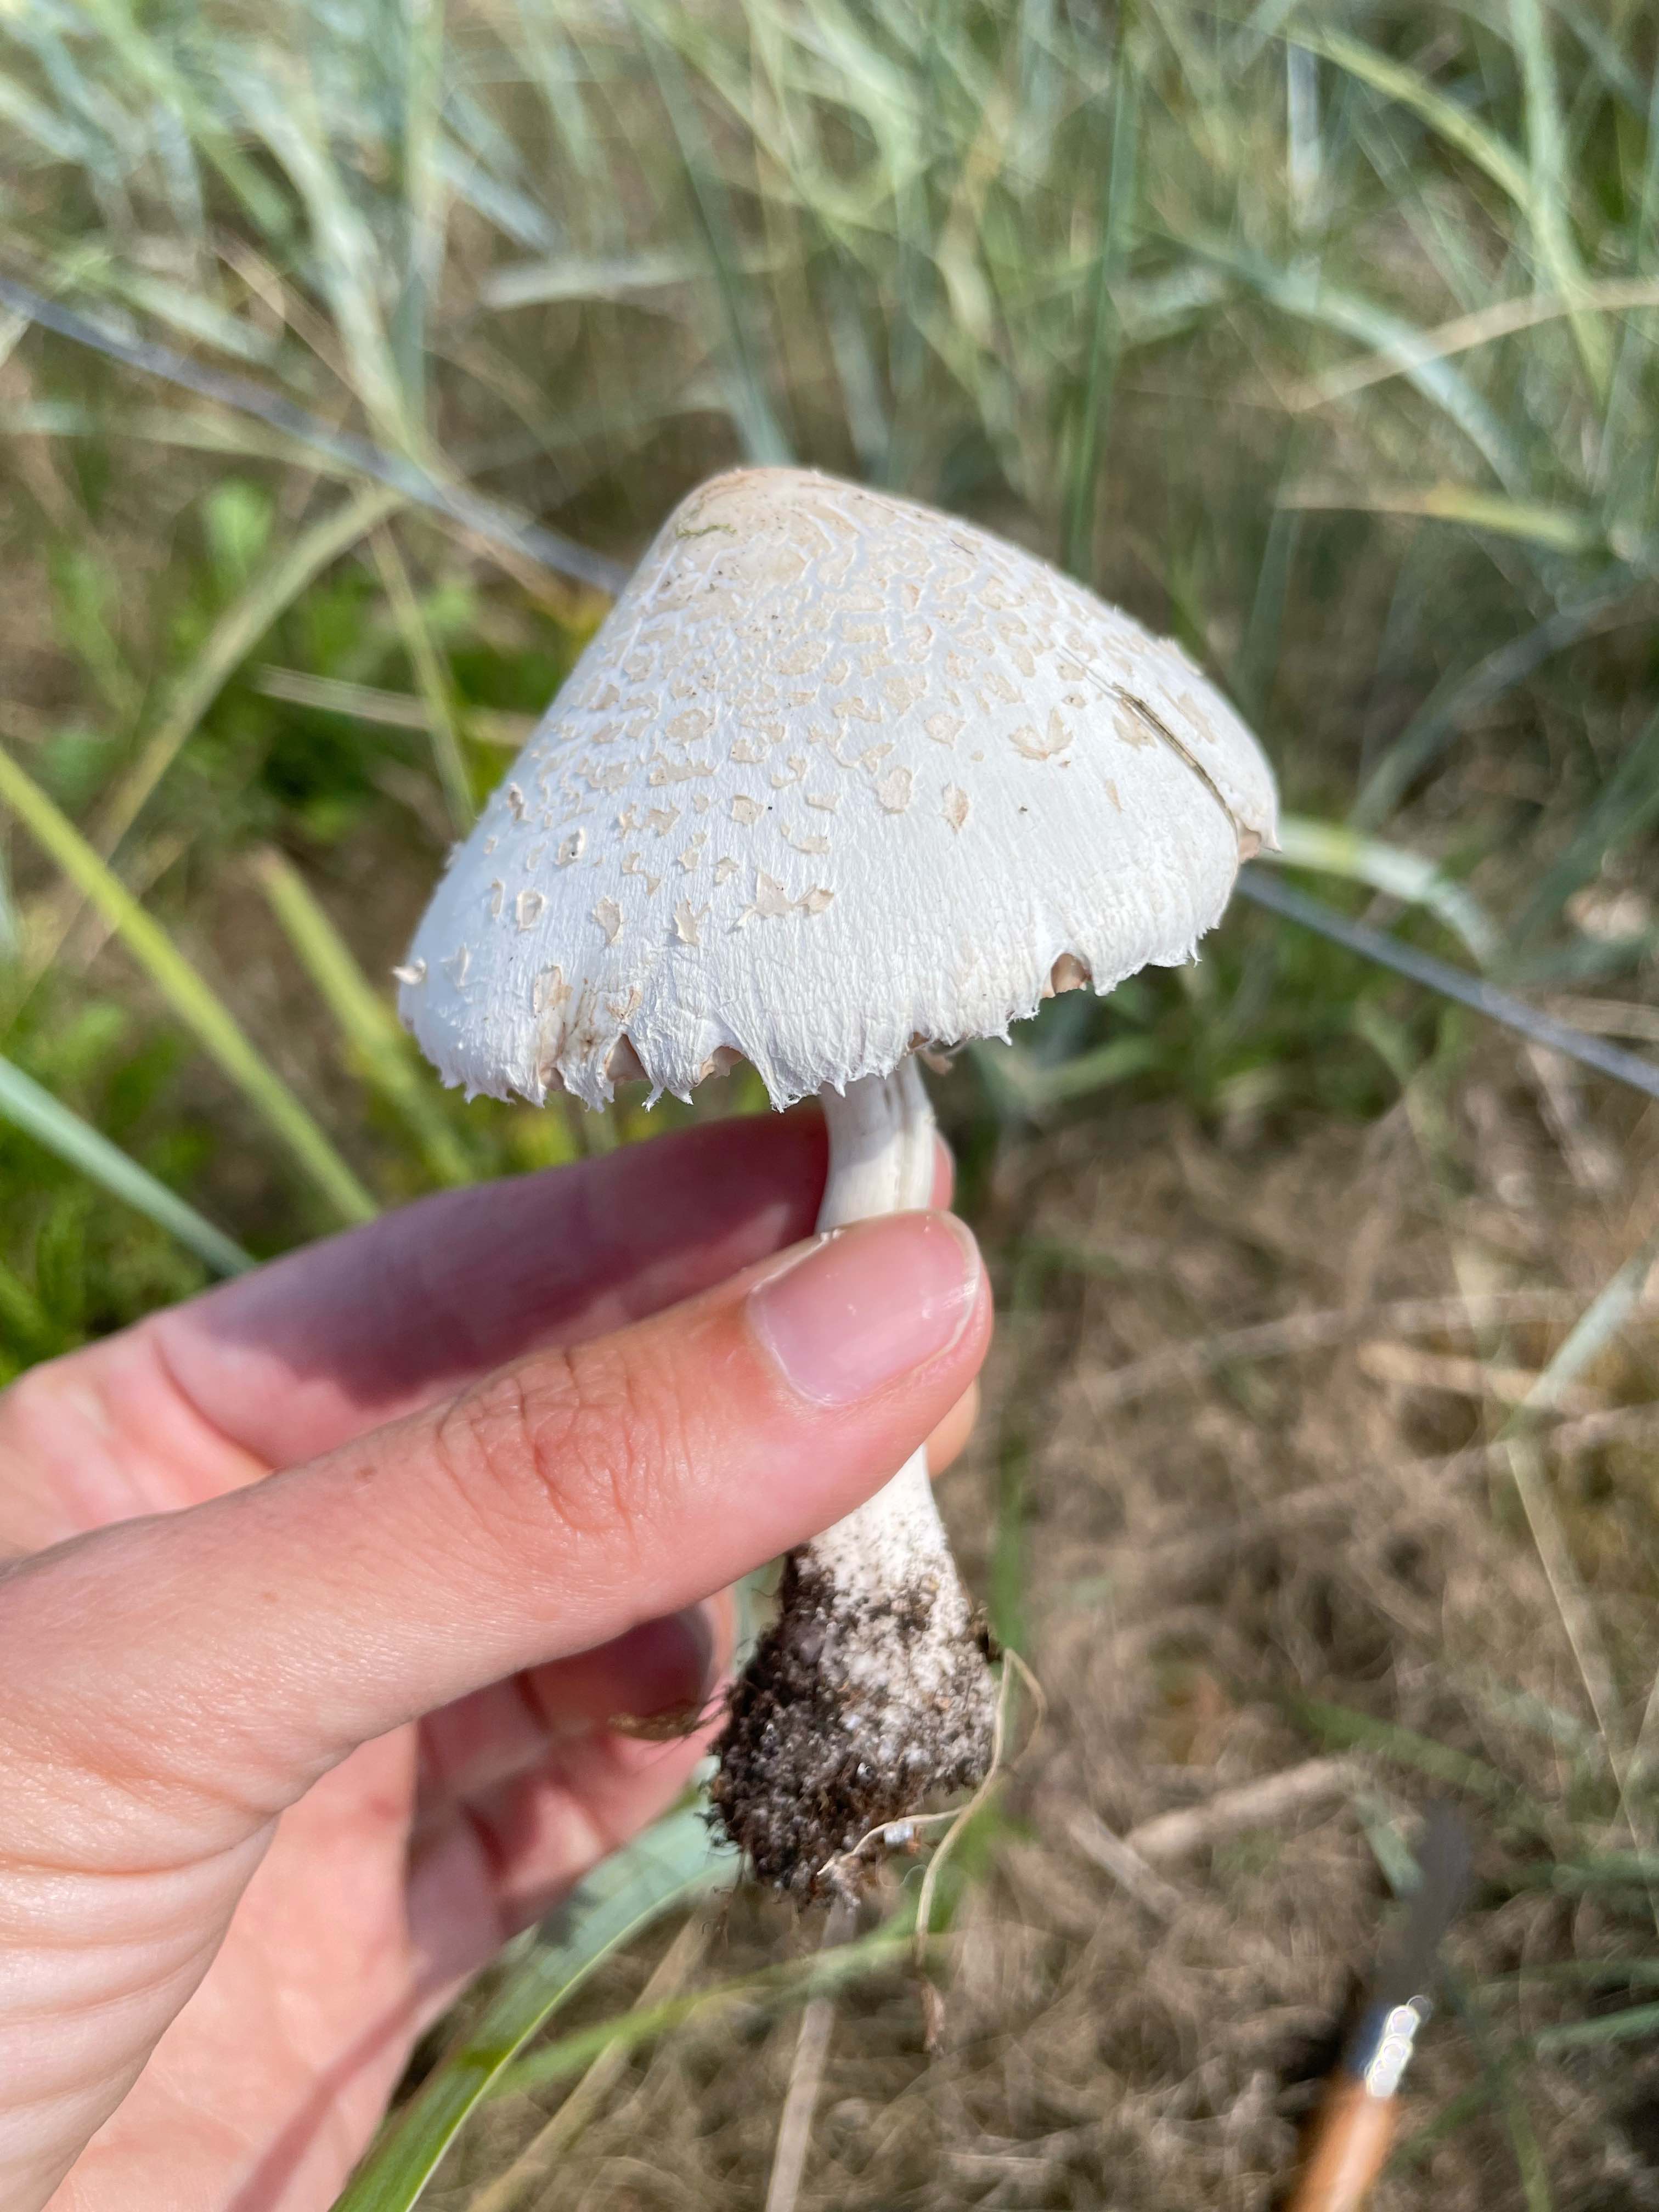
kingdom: Fungi
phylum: Basidiomycota
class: Agaricomycetes
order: Agaricales
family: Agaricaceae
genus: Macrolepiota
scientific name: Macrolepiota excoriata
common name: mark-kæmpeparasolhat
